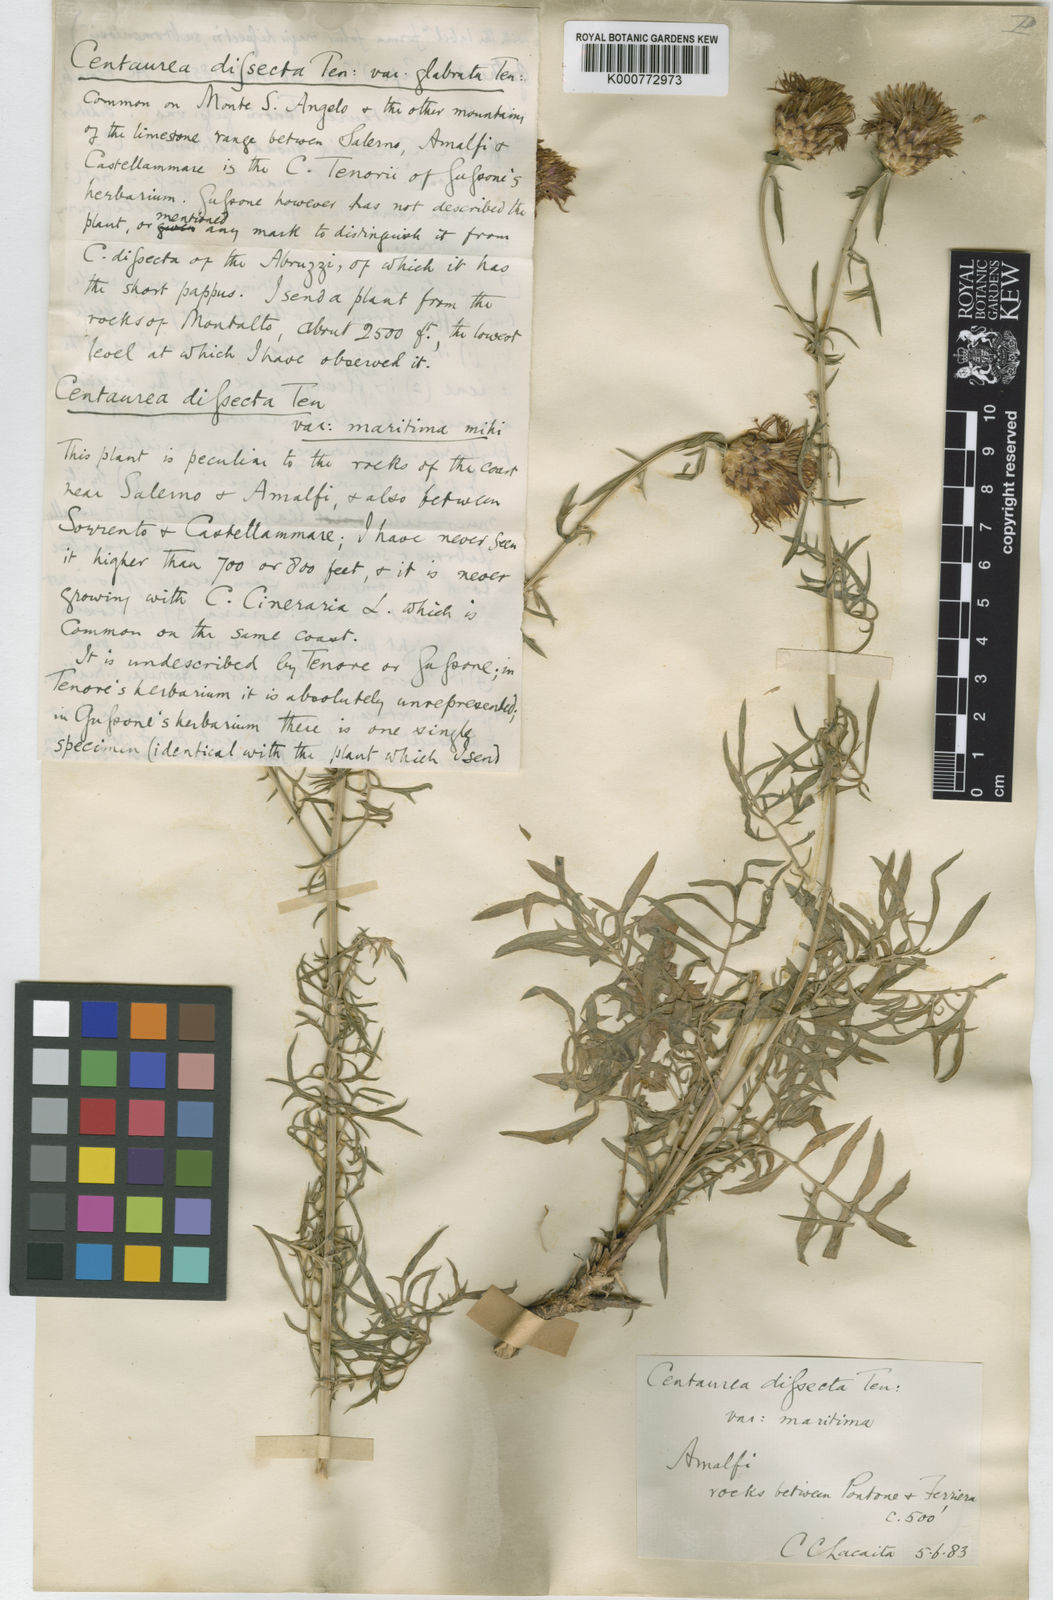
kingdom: Plantae
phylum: Tracheophyta
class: Magnoliopsida
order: Asterales
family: Asteraceae
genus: Centaurea
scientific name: Centaurea parlatoris
